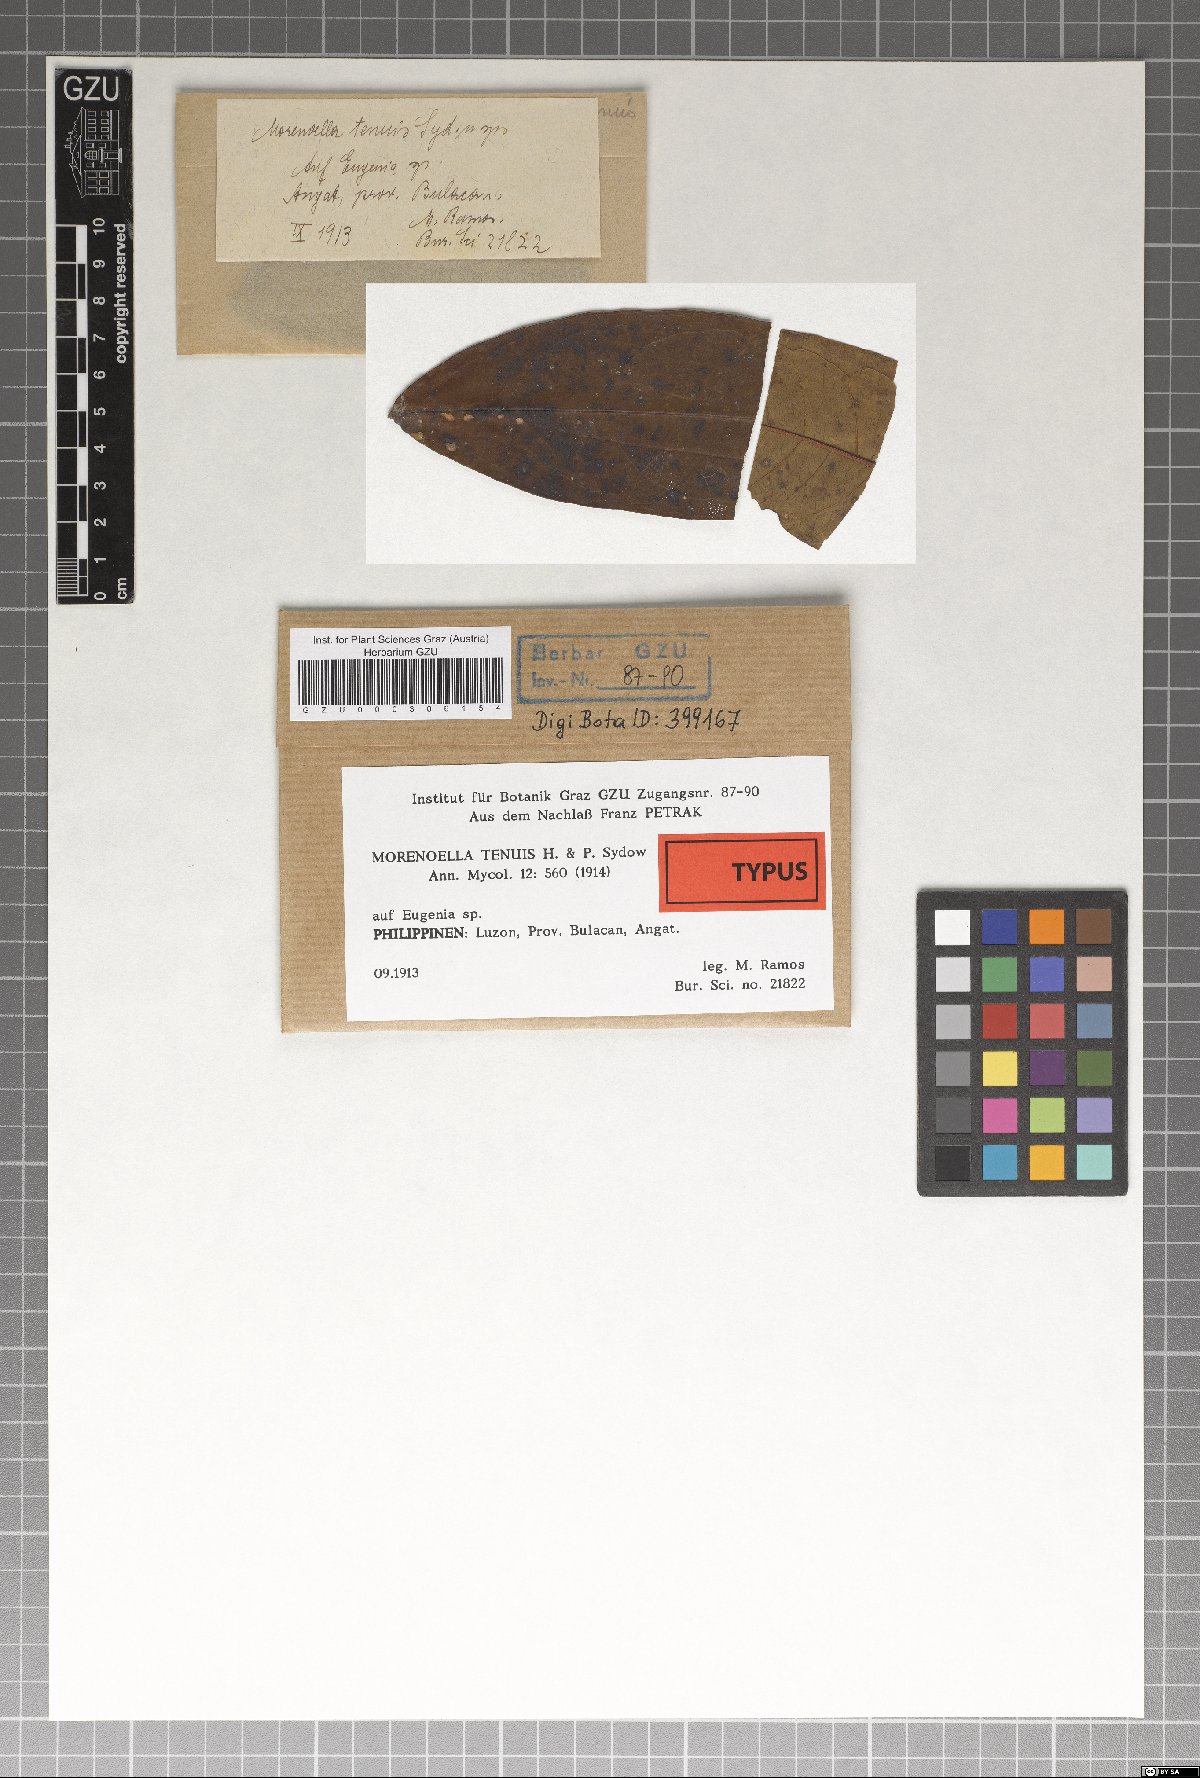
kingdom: Fungi
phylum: Ascomycota
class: Dothideomycetes
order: Asterinales
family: Asterinaceae
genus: Lembosia
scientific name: Lembosia tenuis
